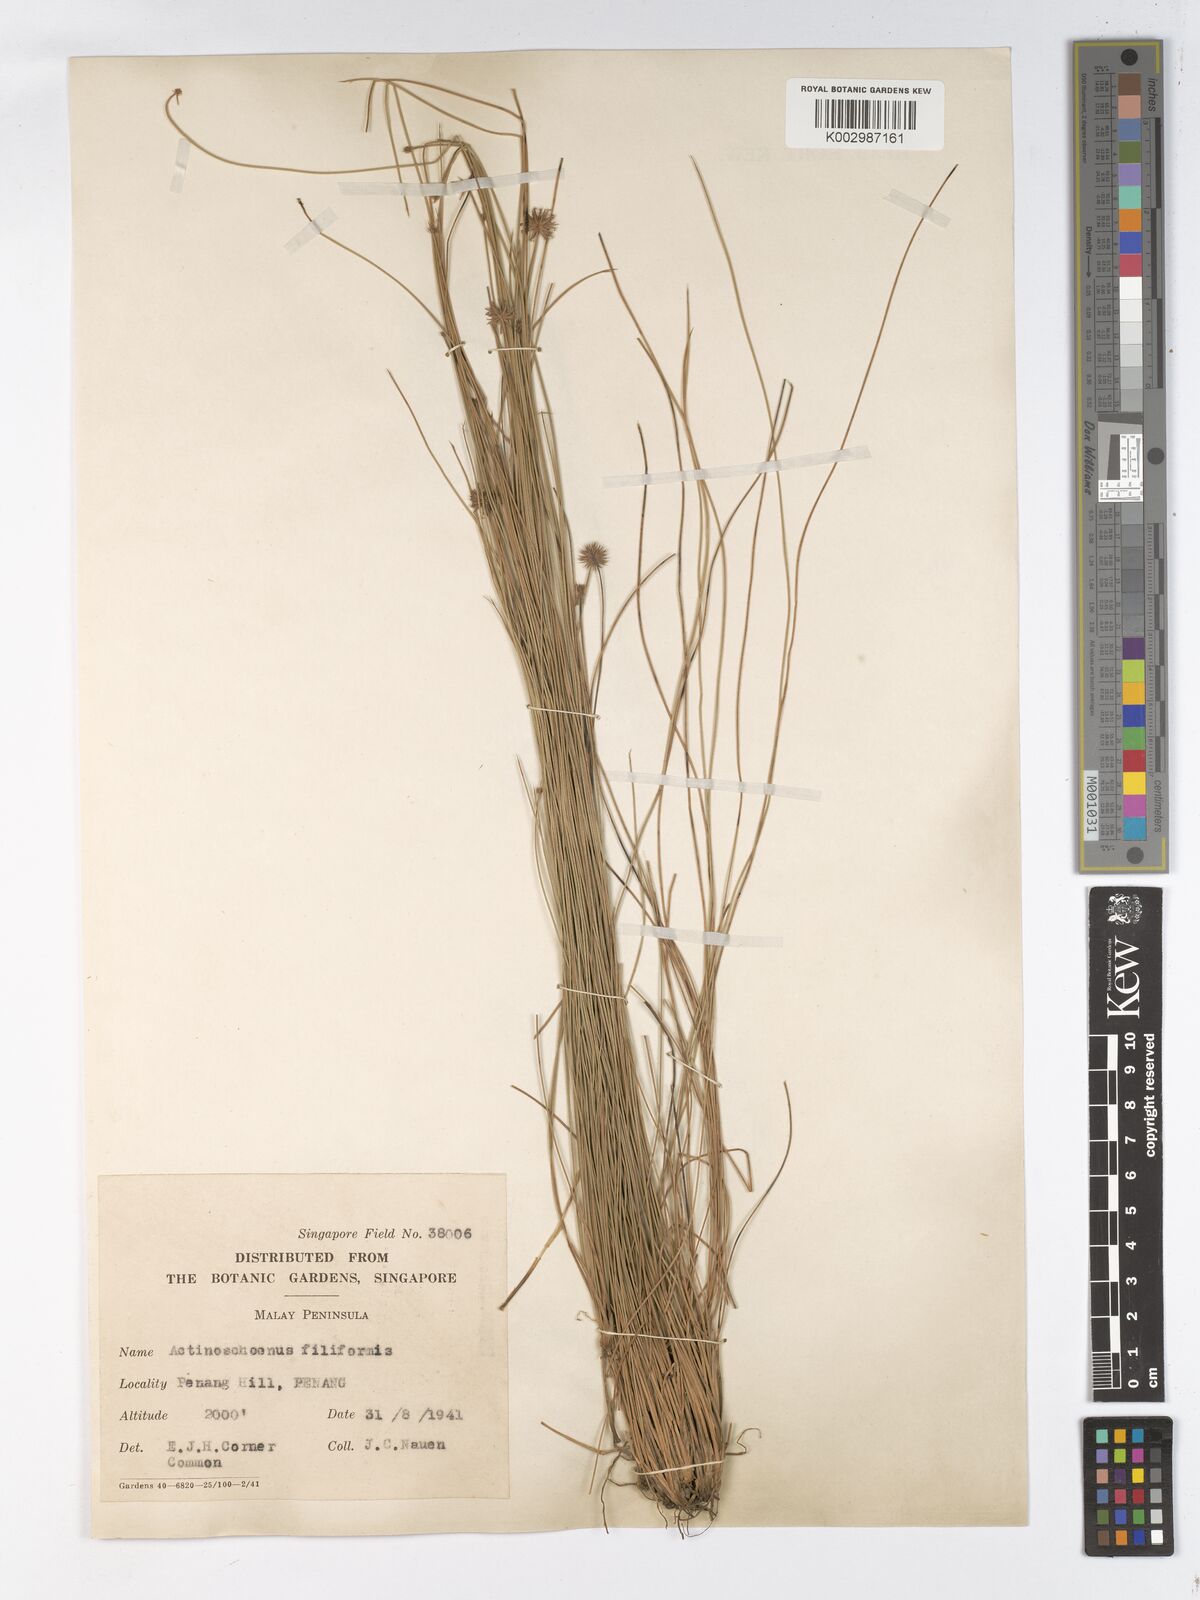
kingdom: Plantae
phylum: Tracheophyta
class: Liliopsida
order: Poales
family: Cyperaceae
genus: Actinoschoenus
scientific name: Actinoschoenus aphyllus
